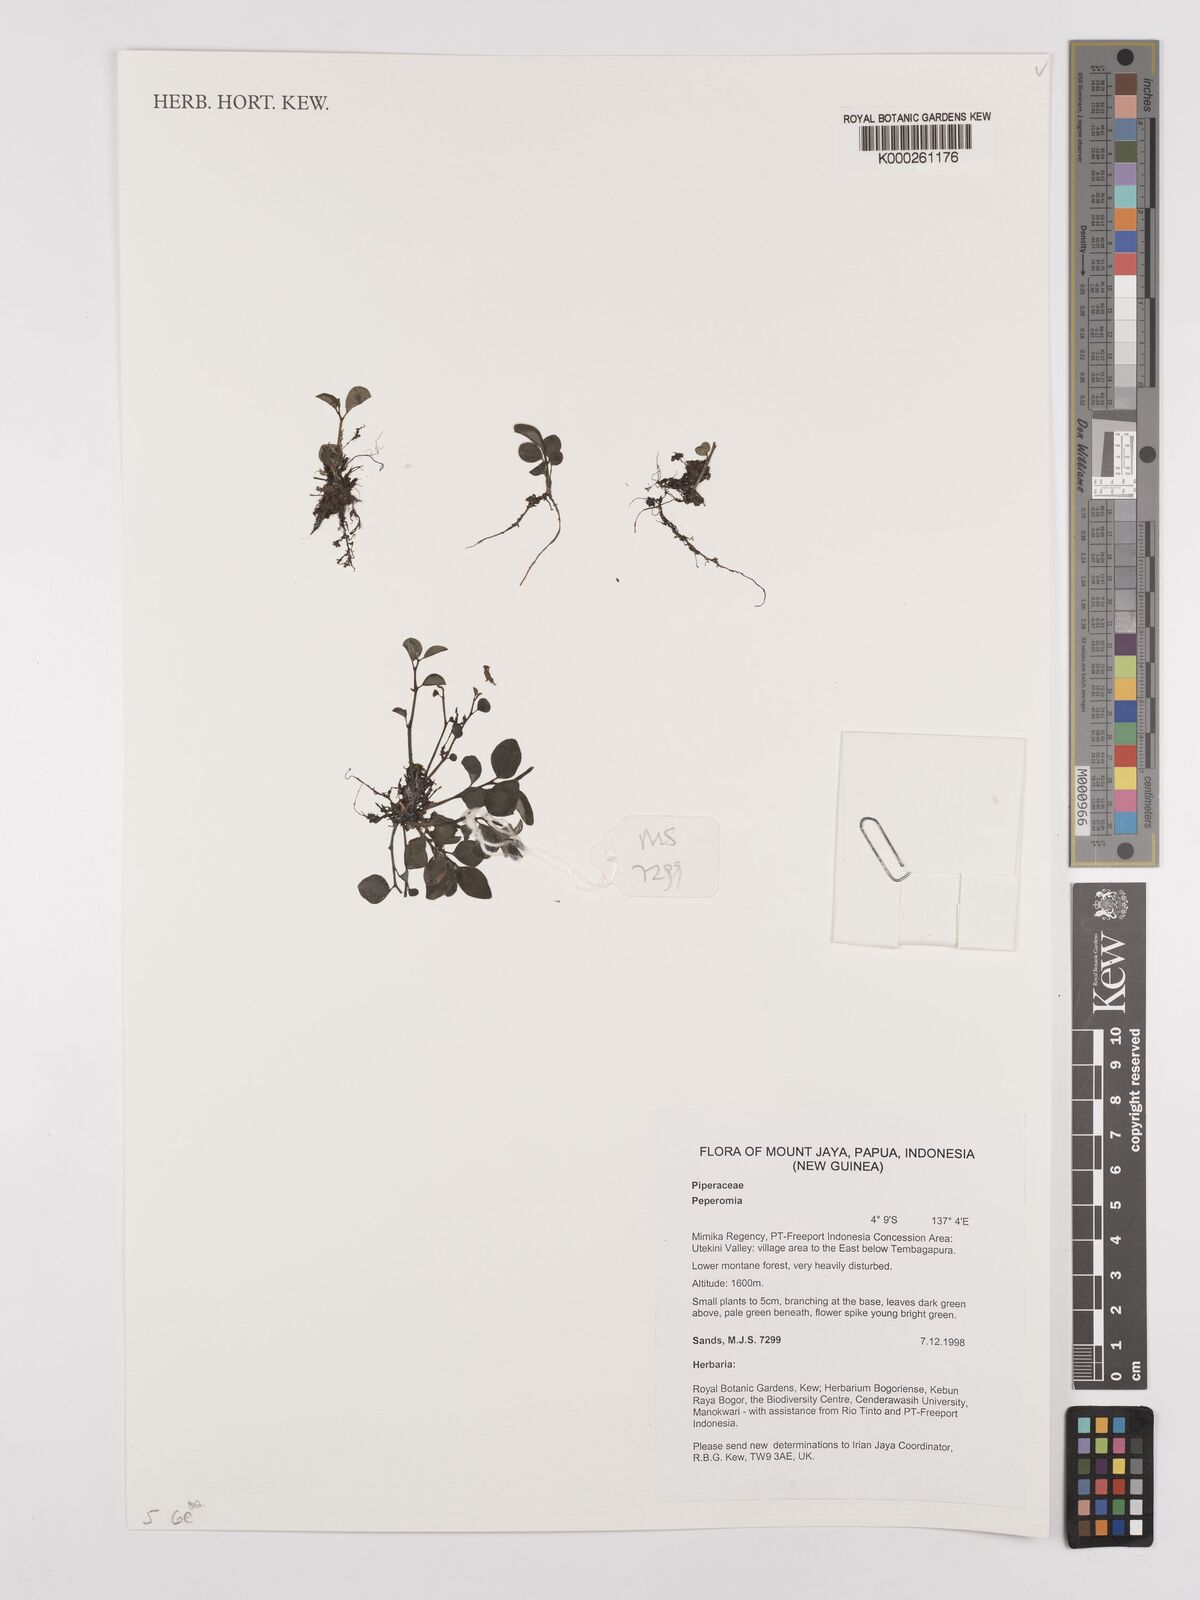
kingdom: Plantae
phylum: Tracheophyta
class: Magnoliopsida
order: Piperales
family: Piperaceae
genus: Peperomia
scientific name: Peperomia
